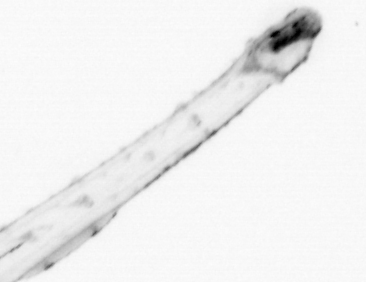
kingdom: Animalia
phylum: Chaetognatha
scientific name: Chaetognatha
